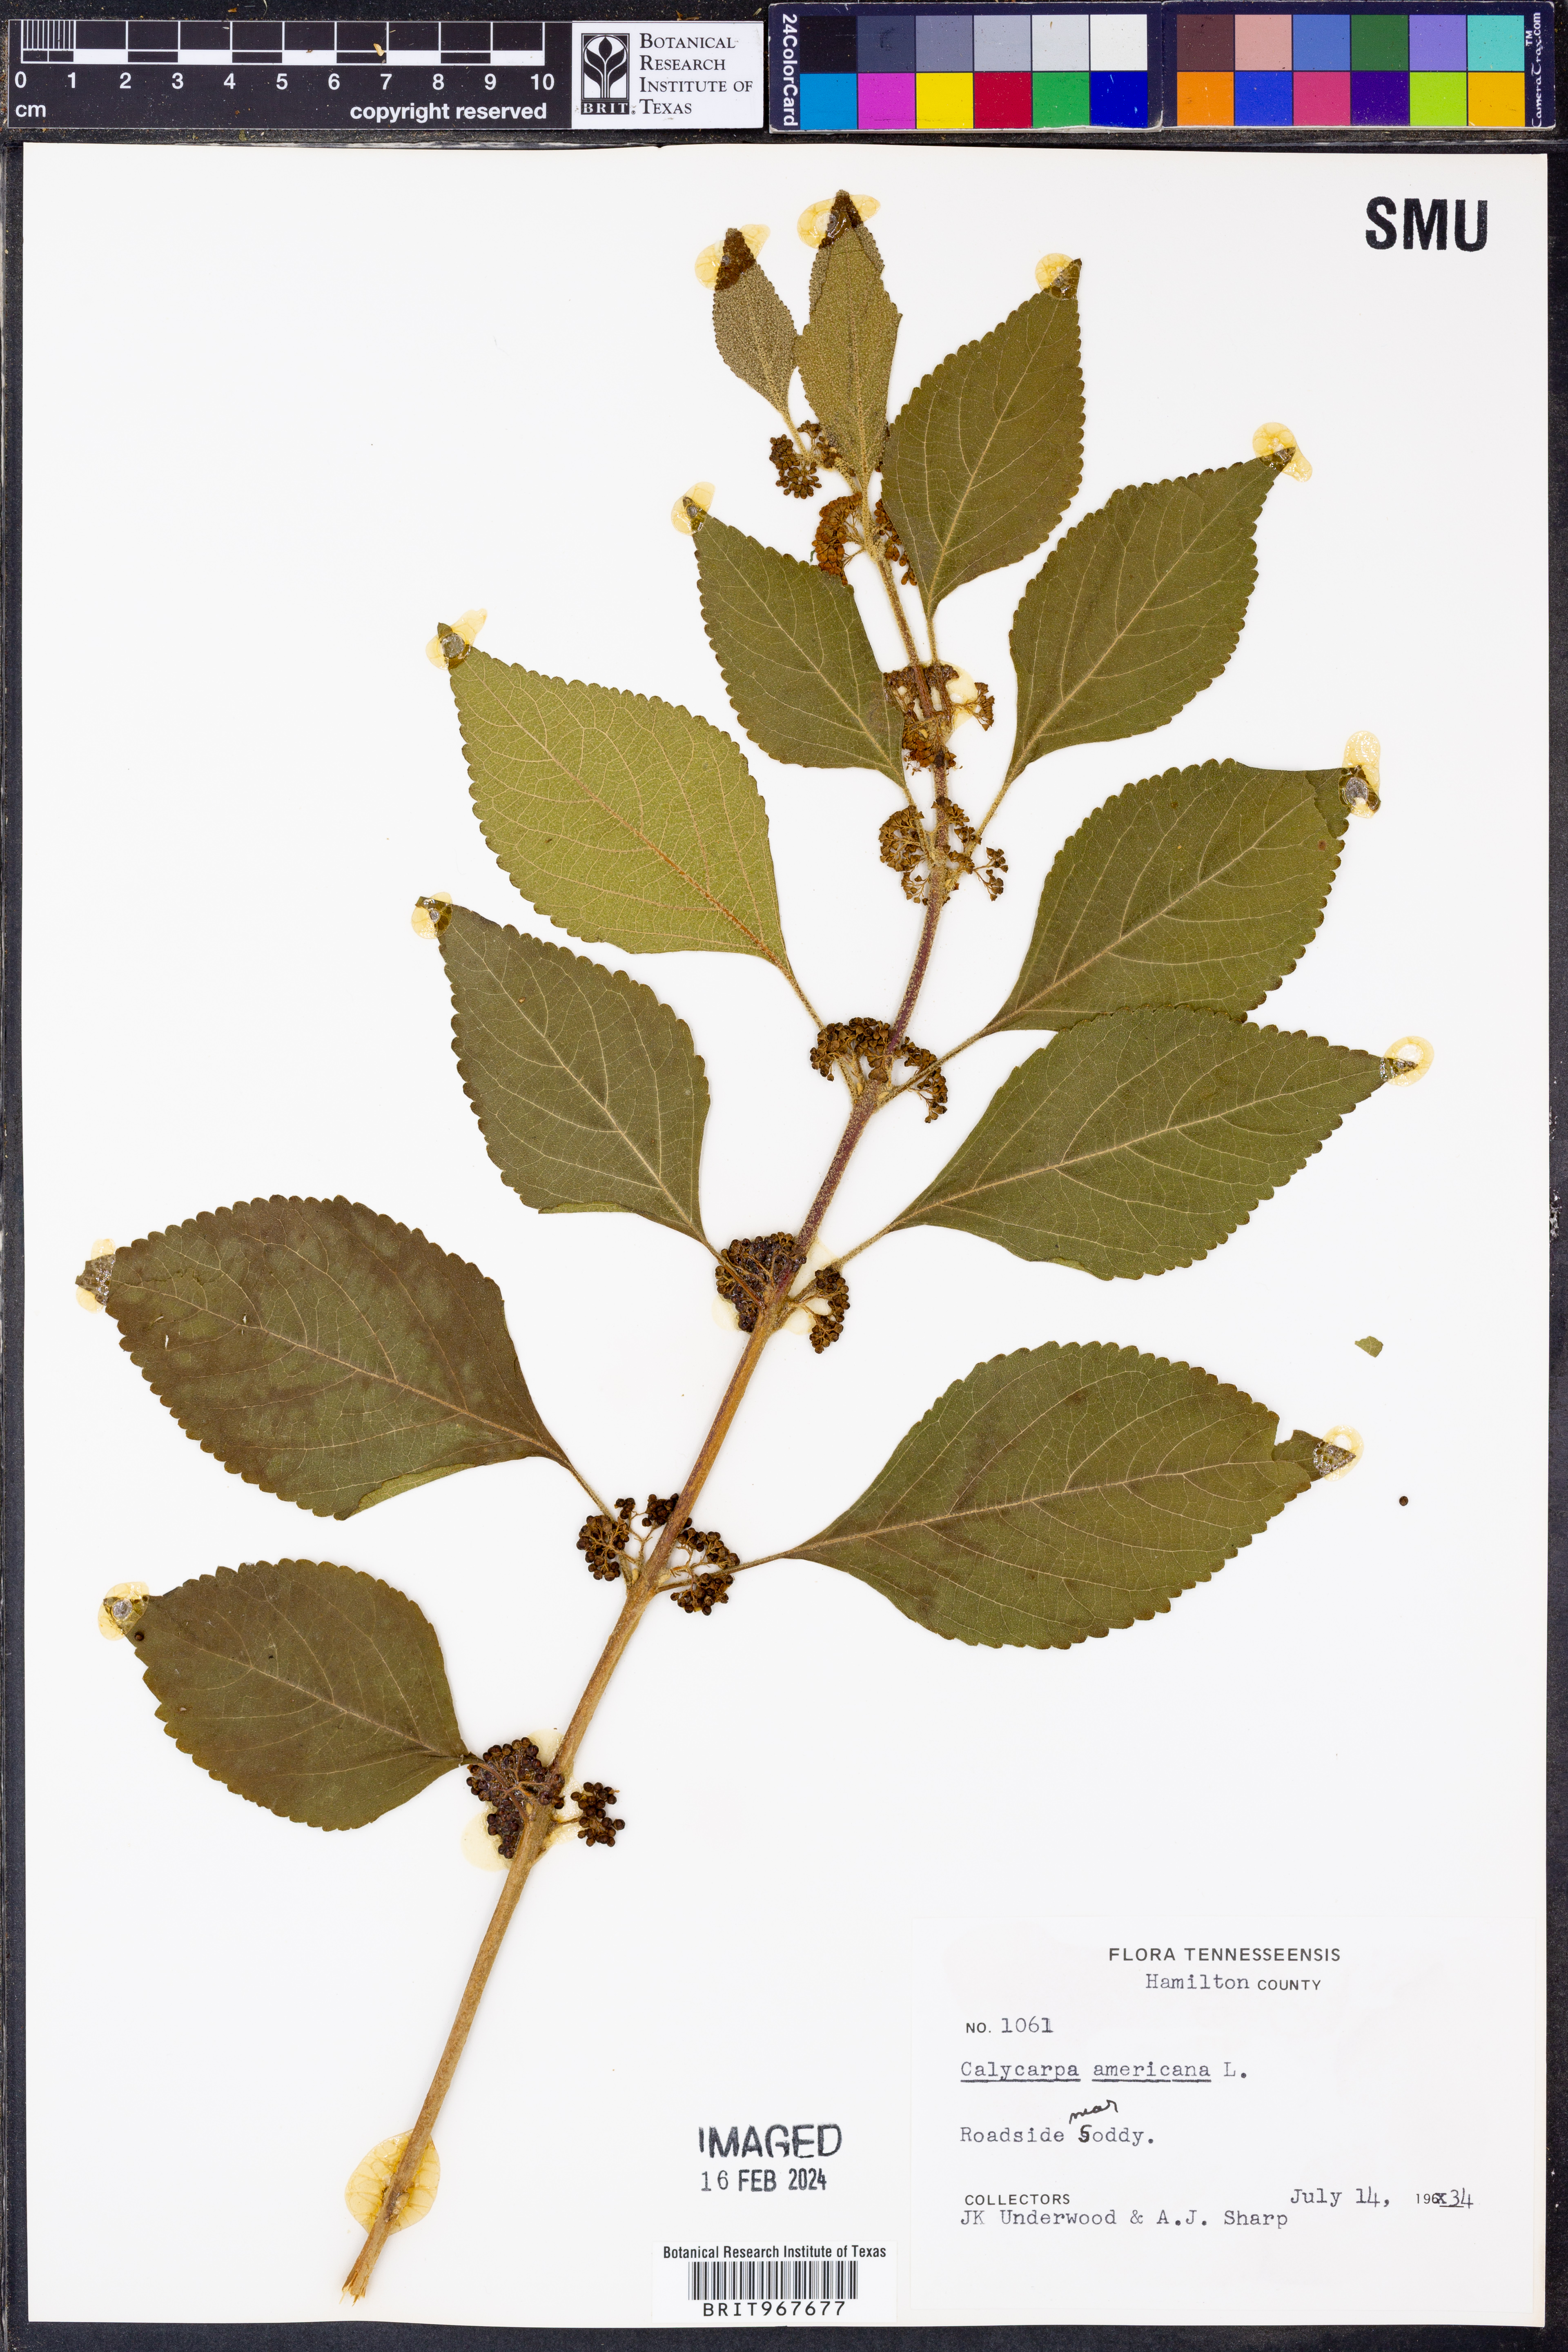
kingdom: Plantae
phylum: Tracheophyta
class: Magnoliopsida
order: Lamiales
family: Lamiaceae
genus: Callicarpa
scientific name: Callicarpa americana
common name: American beautyberry
